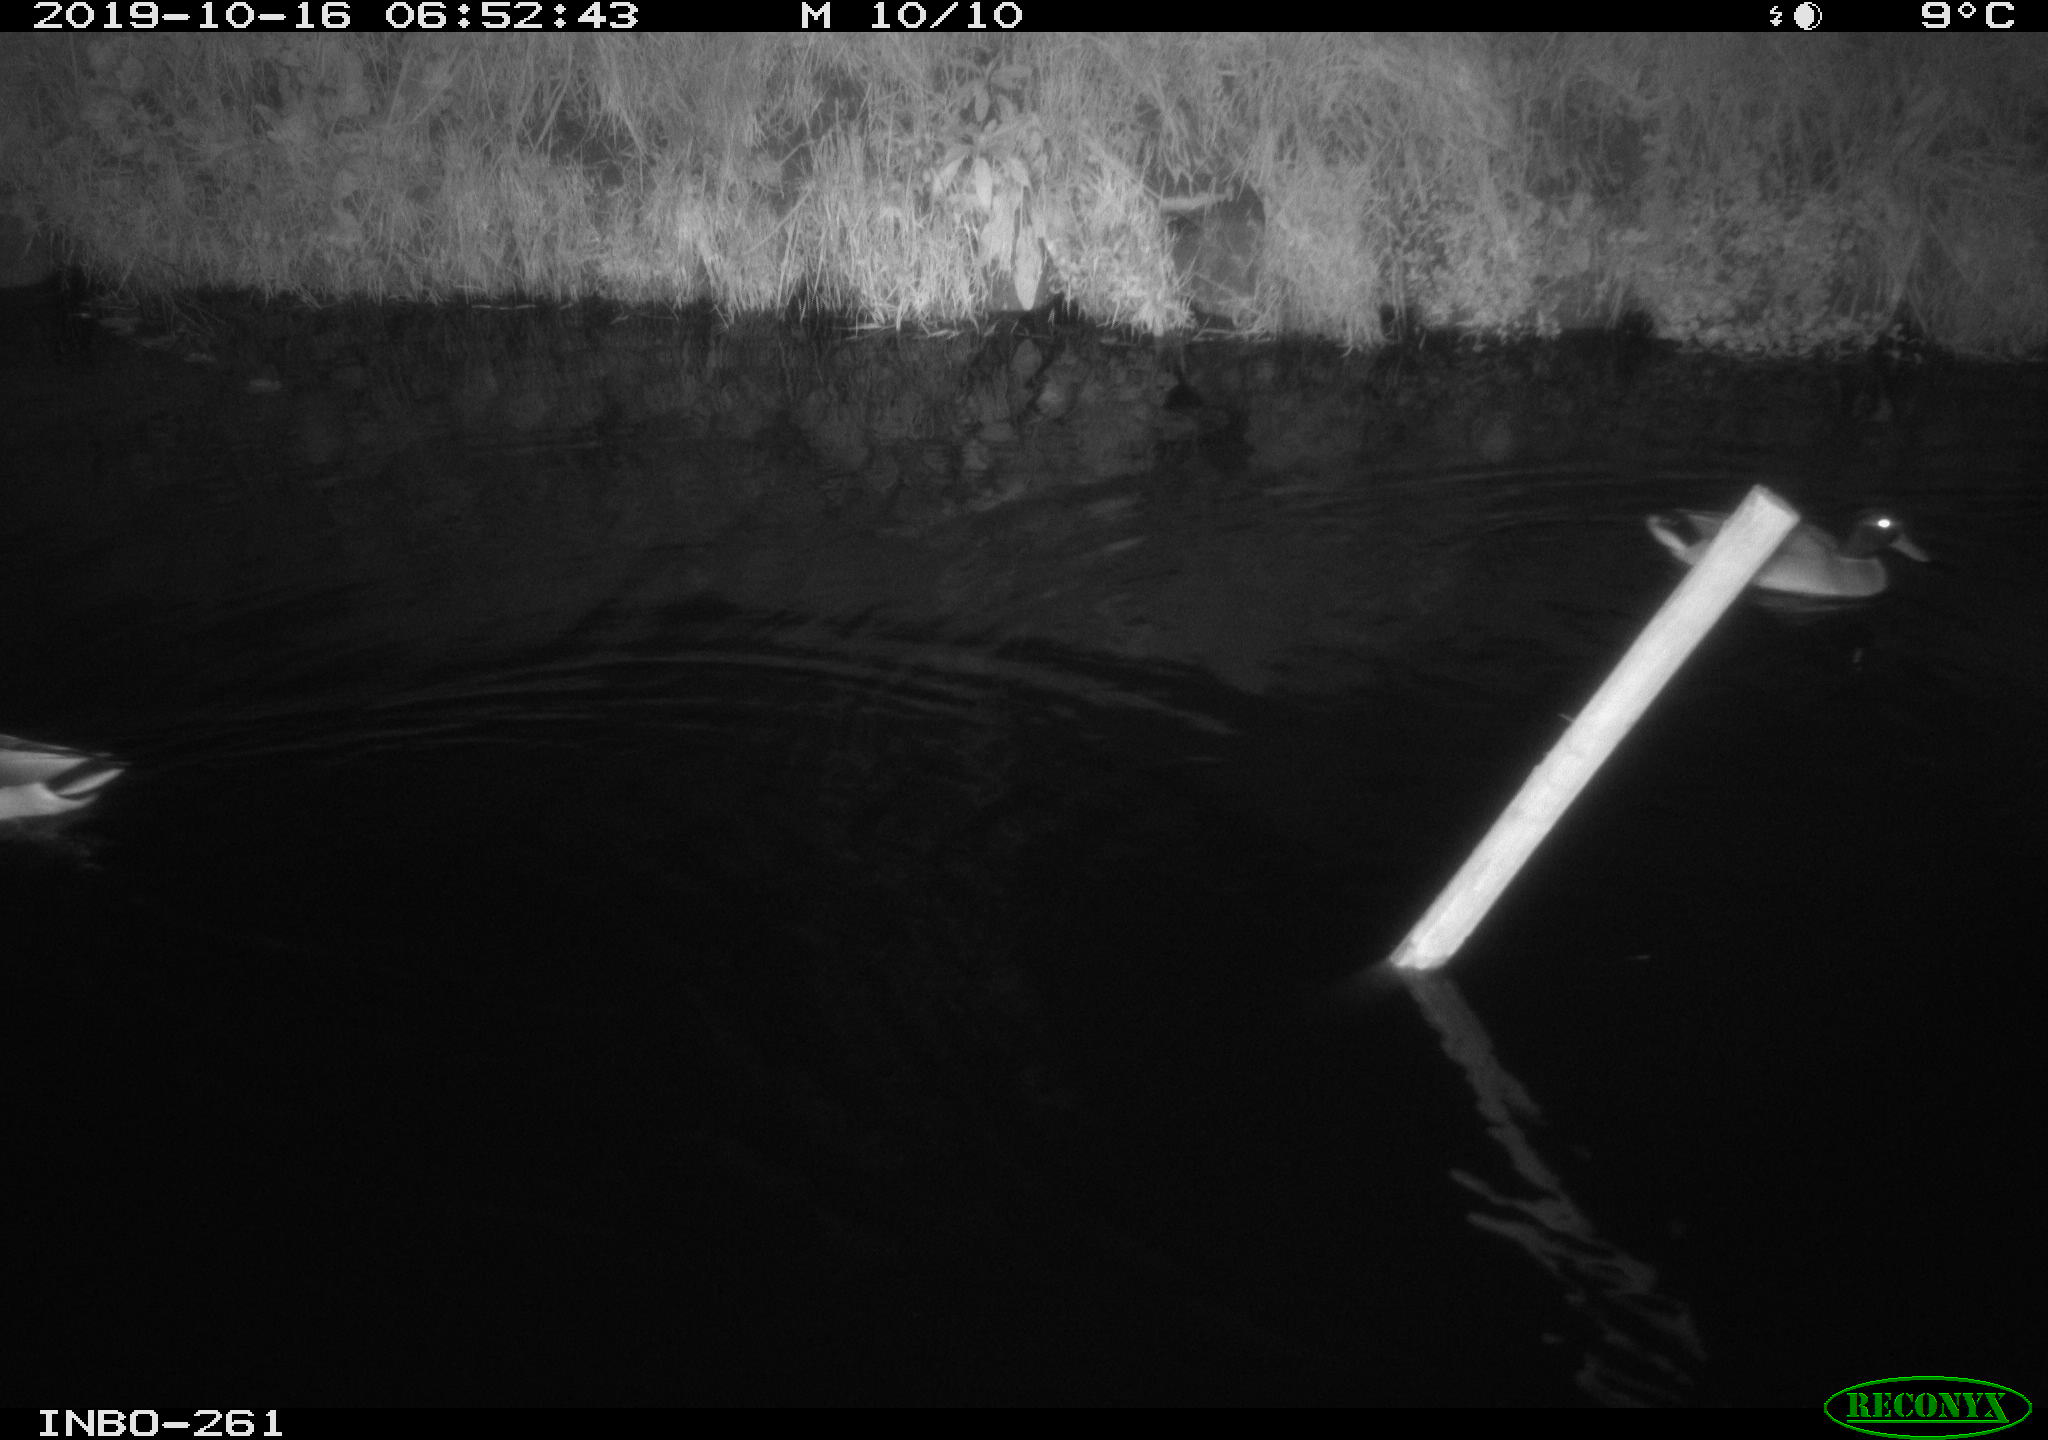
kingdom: Animalia
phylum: Chordata
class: Aves
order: Anseriformes
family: Anatidae
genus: Anas
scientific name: Anas platyrhynchos
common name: Mallard
